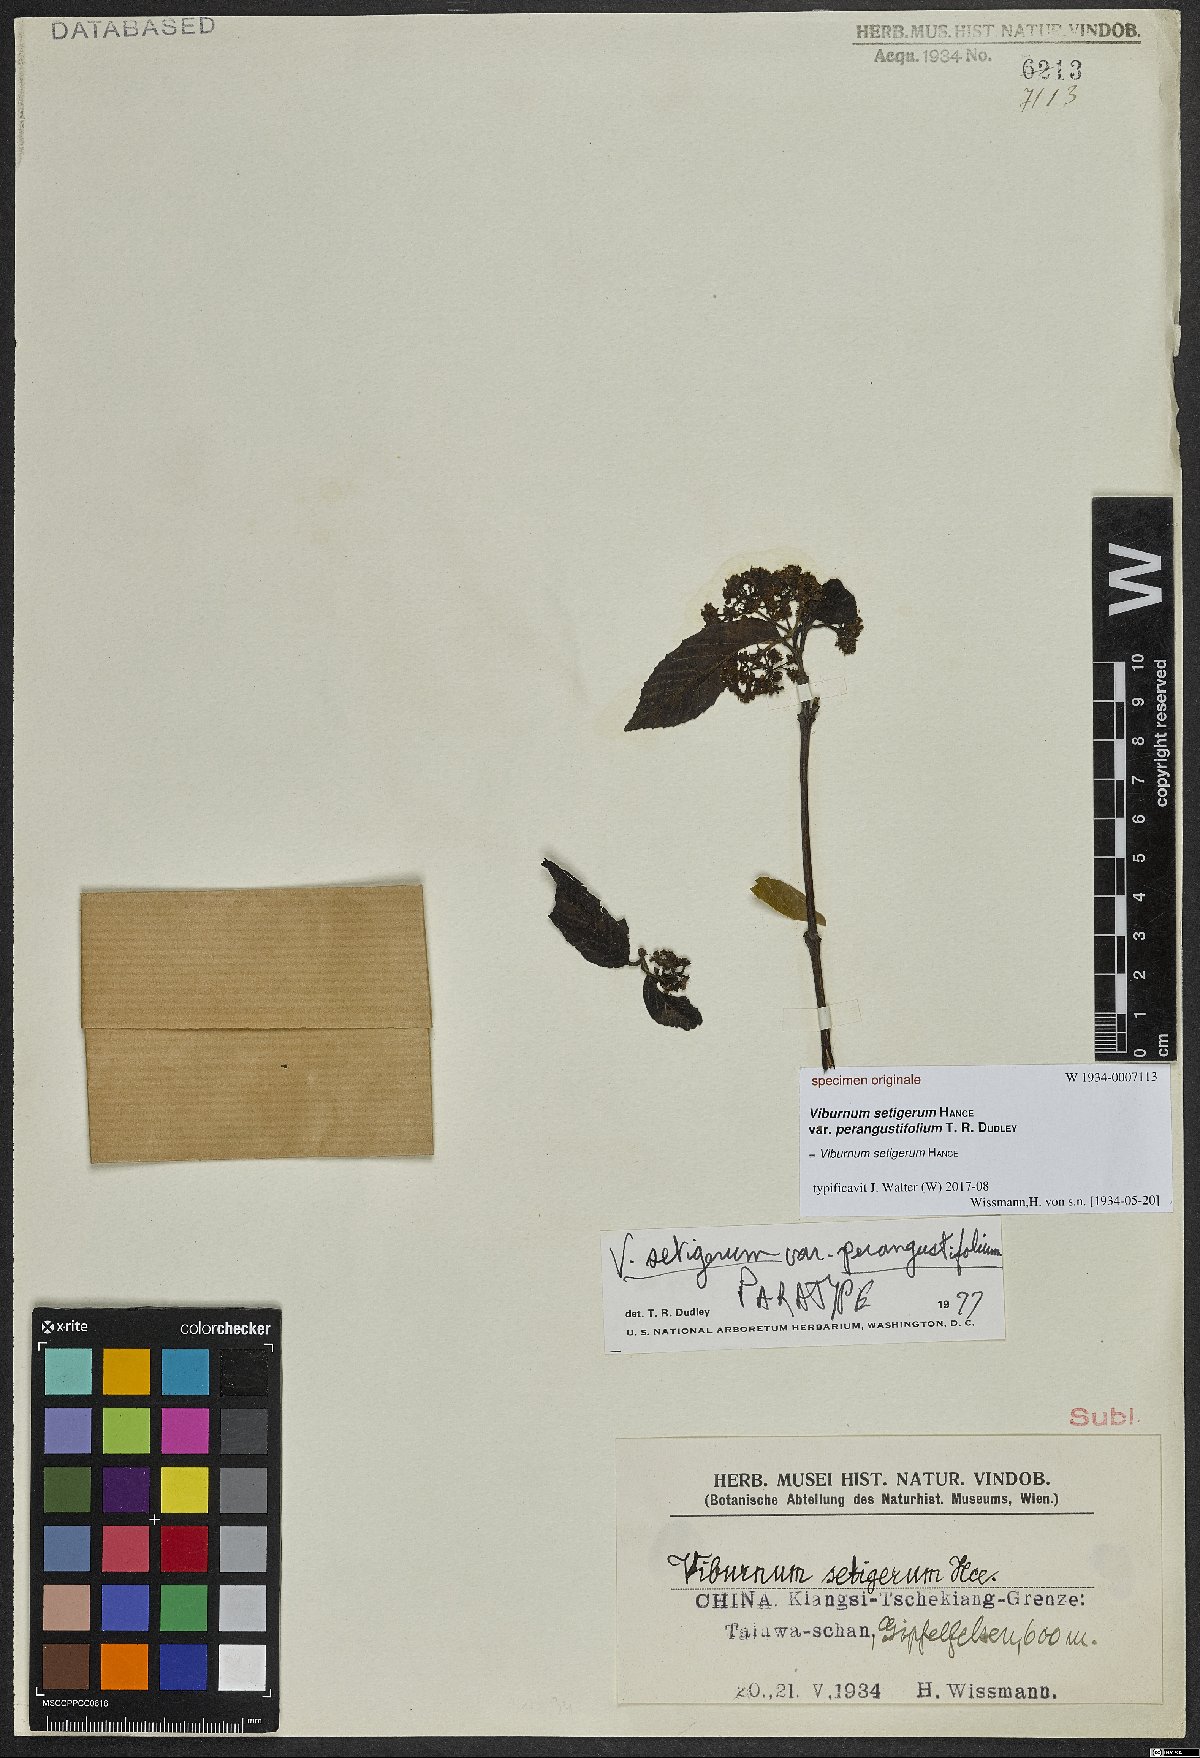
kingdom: Plantae
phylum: Tracheophyta
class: Magnoliopsida
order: Dipsacales
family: Viburnaceae
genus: Viburnum
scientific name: Viburnum setigerum
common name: Tea viburnum
